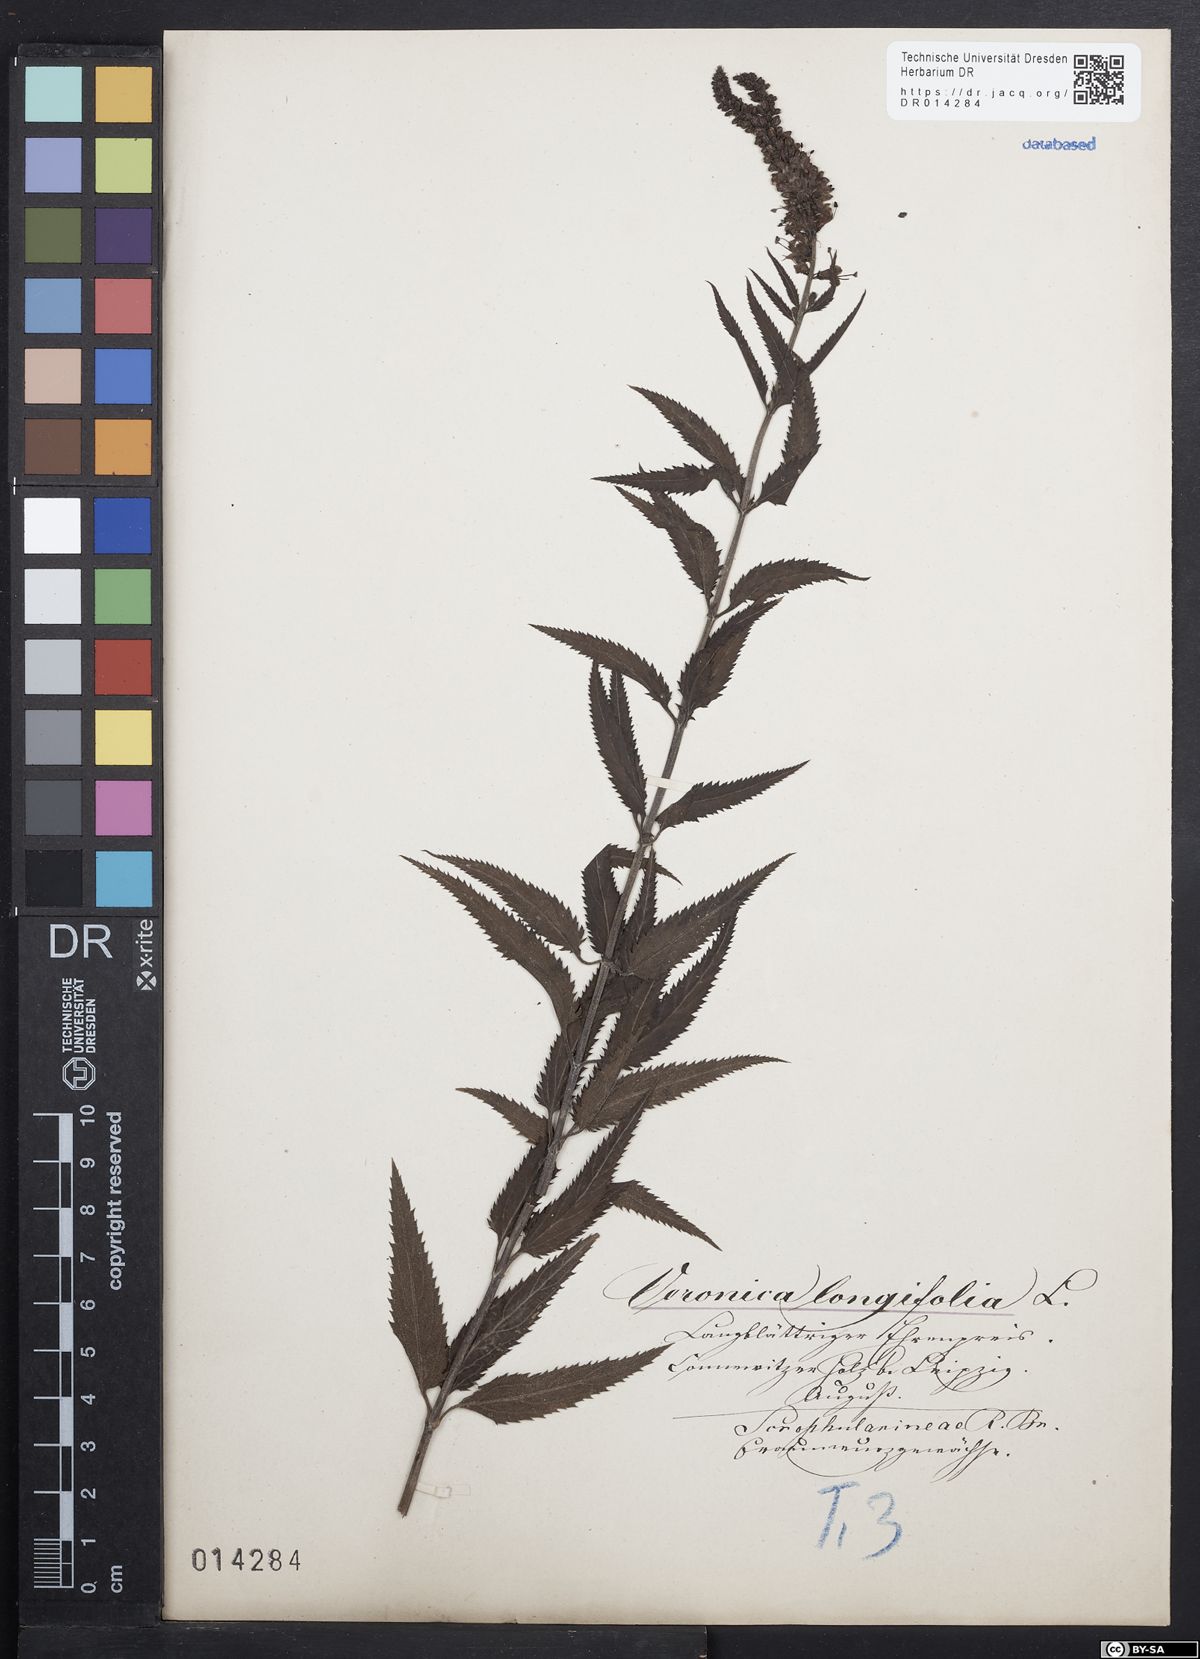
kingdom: Plantae
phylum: Tracheophyta
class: Magnoliopsida
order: Lamiales
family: Plantaginaceae
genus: Veronica
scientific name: Veronica longifolia
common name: Garden speedwell
